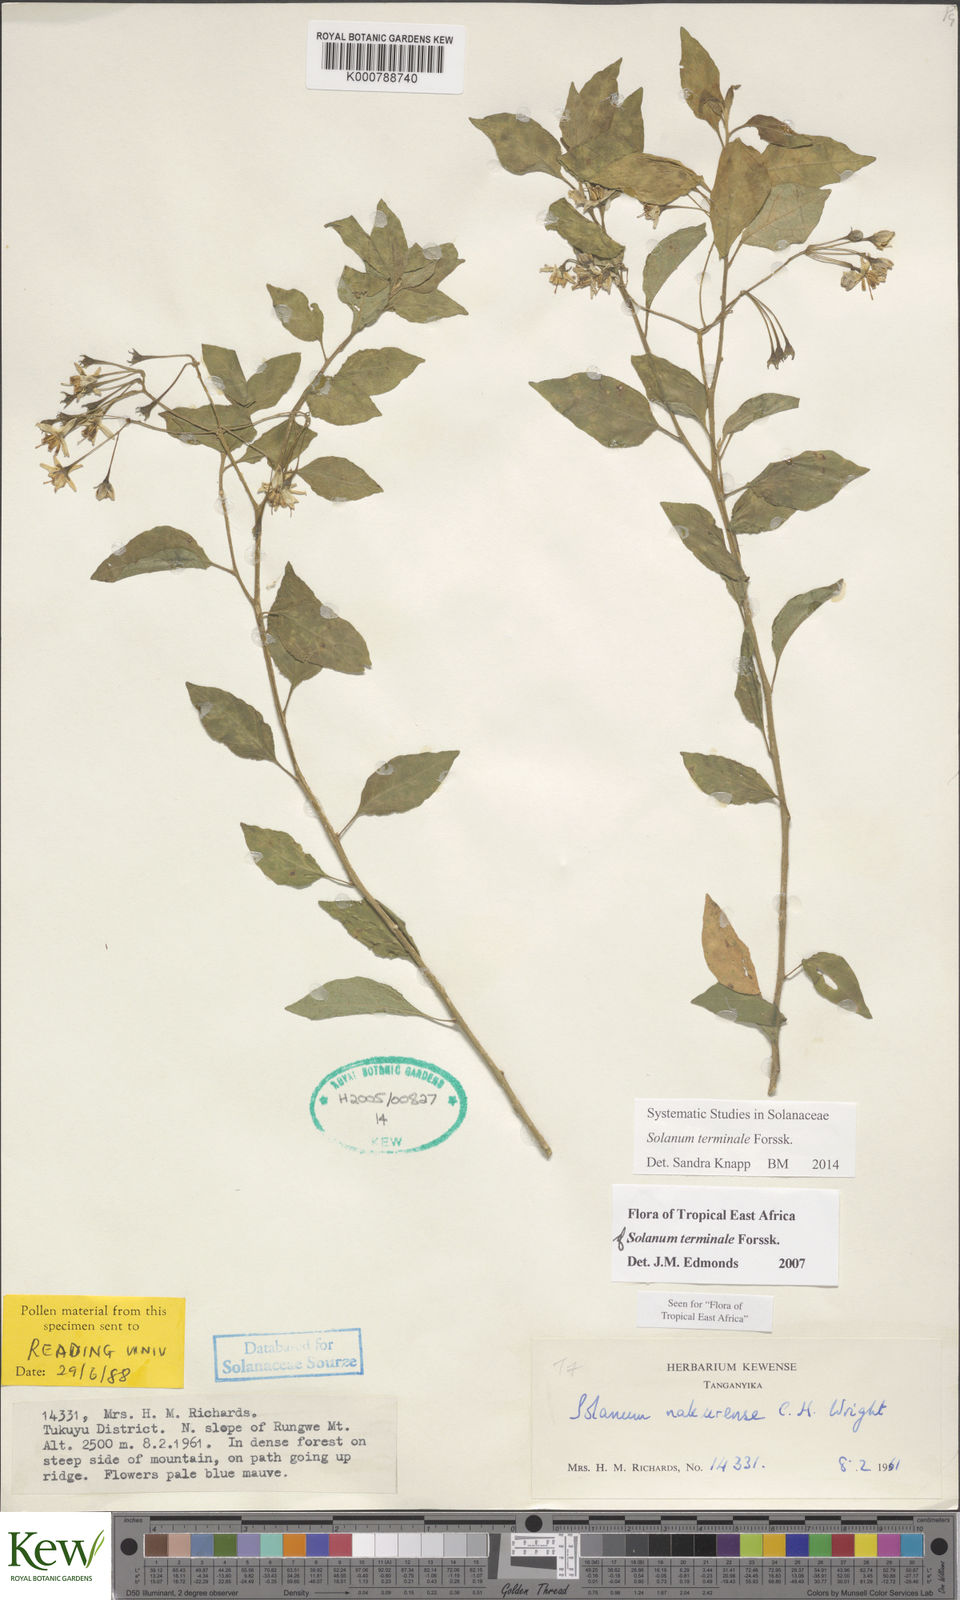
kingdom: Plantae
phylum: Tracheophyta
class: Magnoliopsida
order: Solanales
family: Solanaceae
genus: Solanum
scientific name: Solanum terminale
